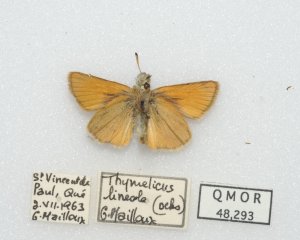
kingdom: Animalia
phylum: Arthropoda
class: Insecta
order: Lepidoptera
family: Hesperiidae
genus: Thymelicus
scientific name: Thymelicus lineola
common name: European Skipper
